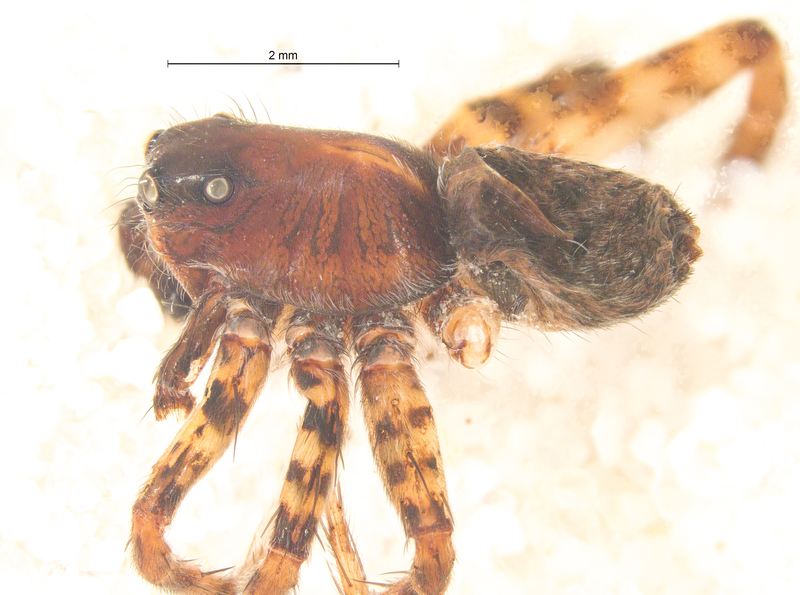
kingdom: Animalia
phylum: Arthropoda
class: Arachnida
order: Araneae
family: Lycosidae
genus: Pardosa
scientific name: Pardosa prativaga
